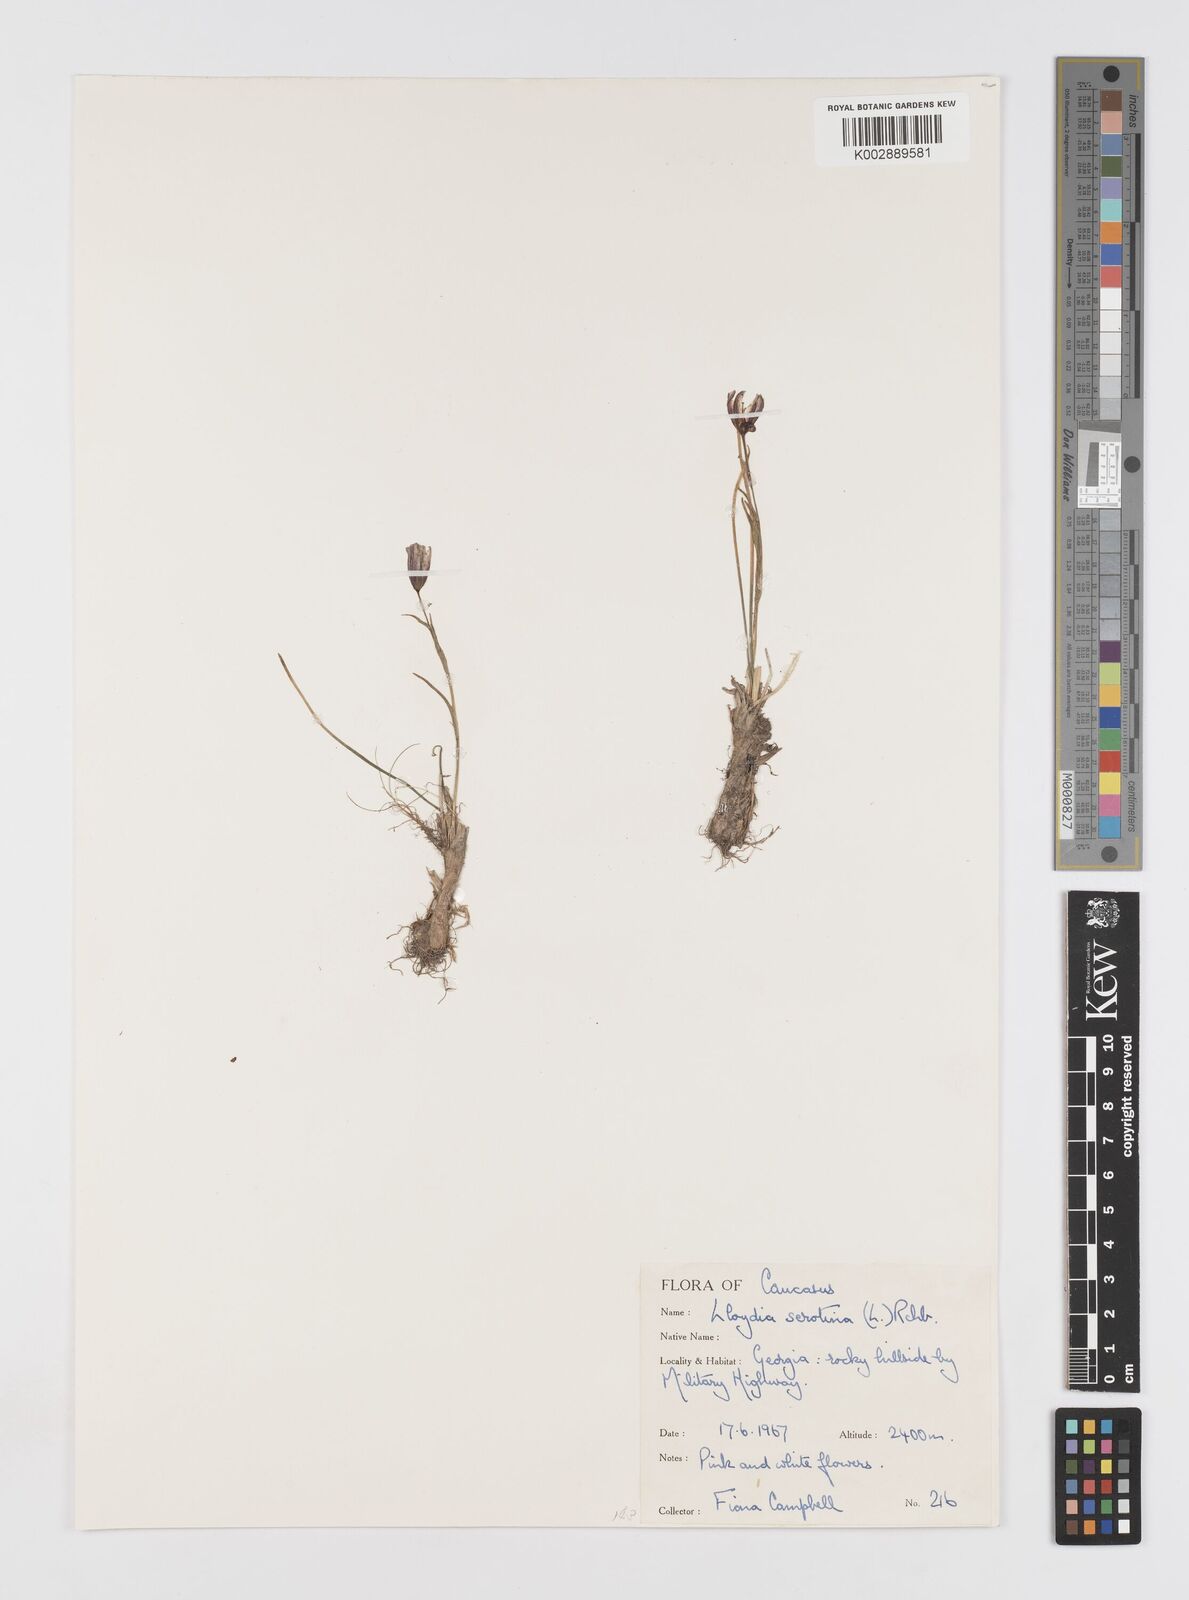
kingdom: Plantae
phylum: Tracheophyta
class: Liliopsida
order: Liliales
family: Liliaceae
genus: Gagea
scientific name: Gagea serotina
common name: Snowdon lily
